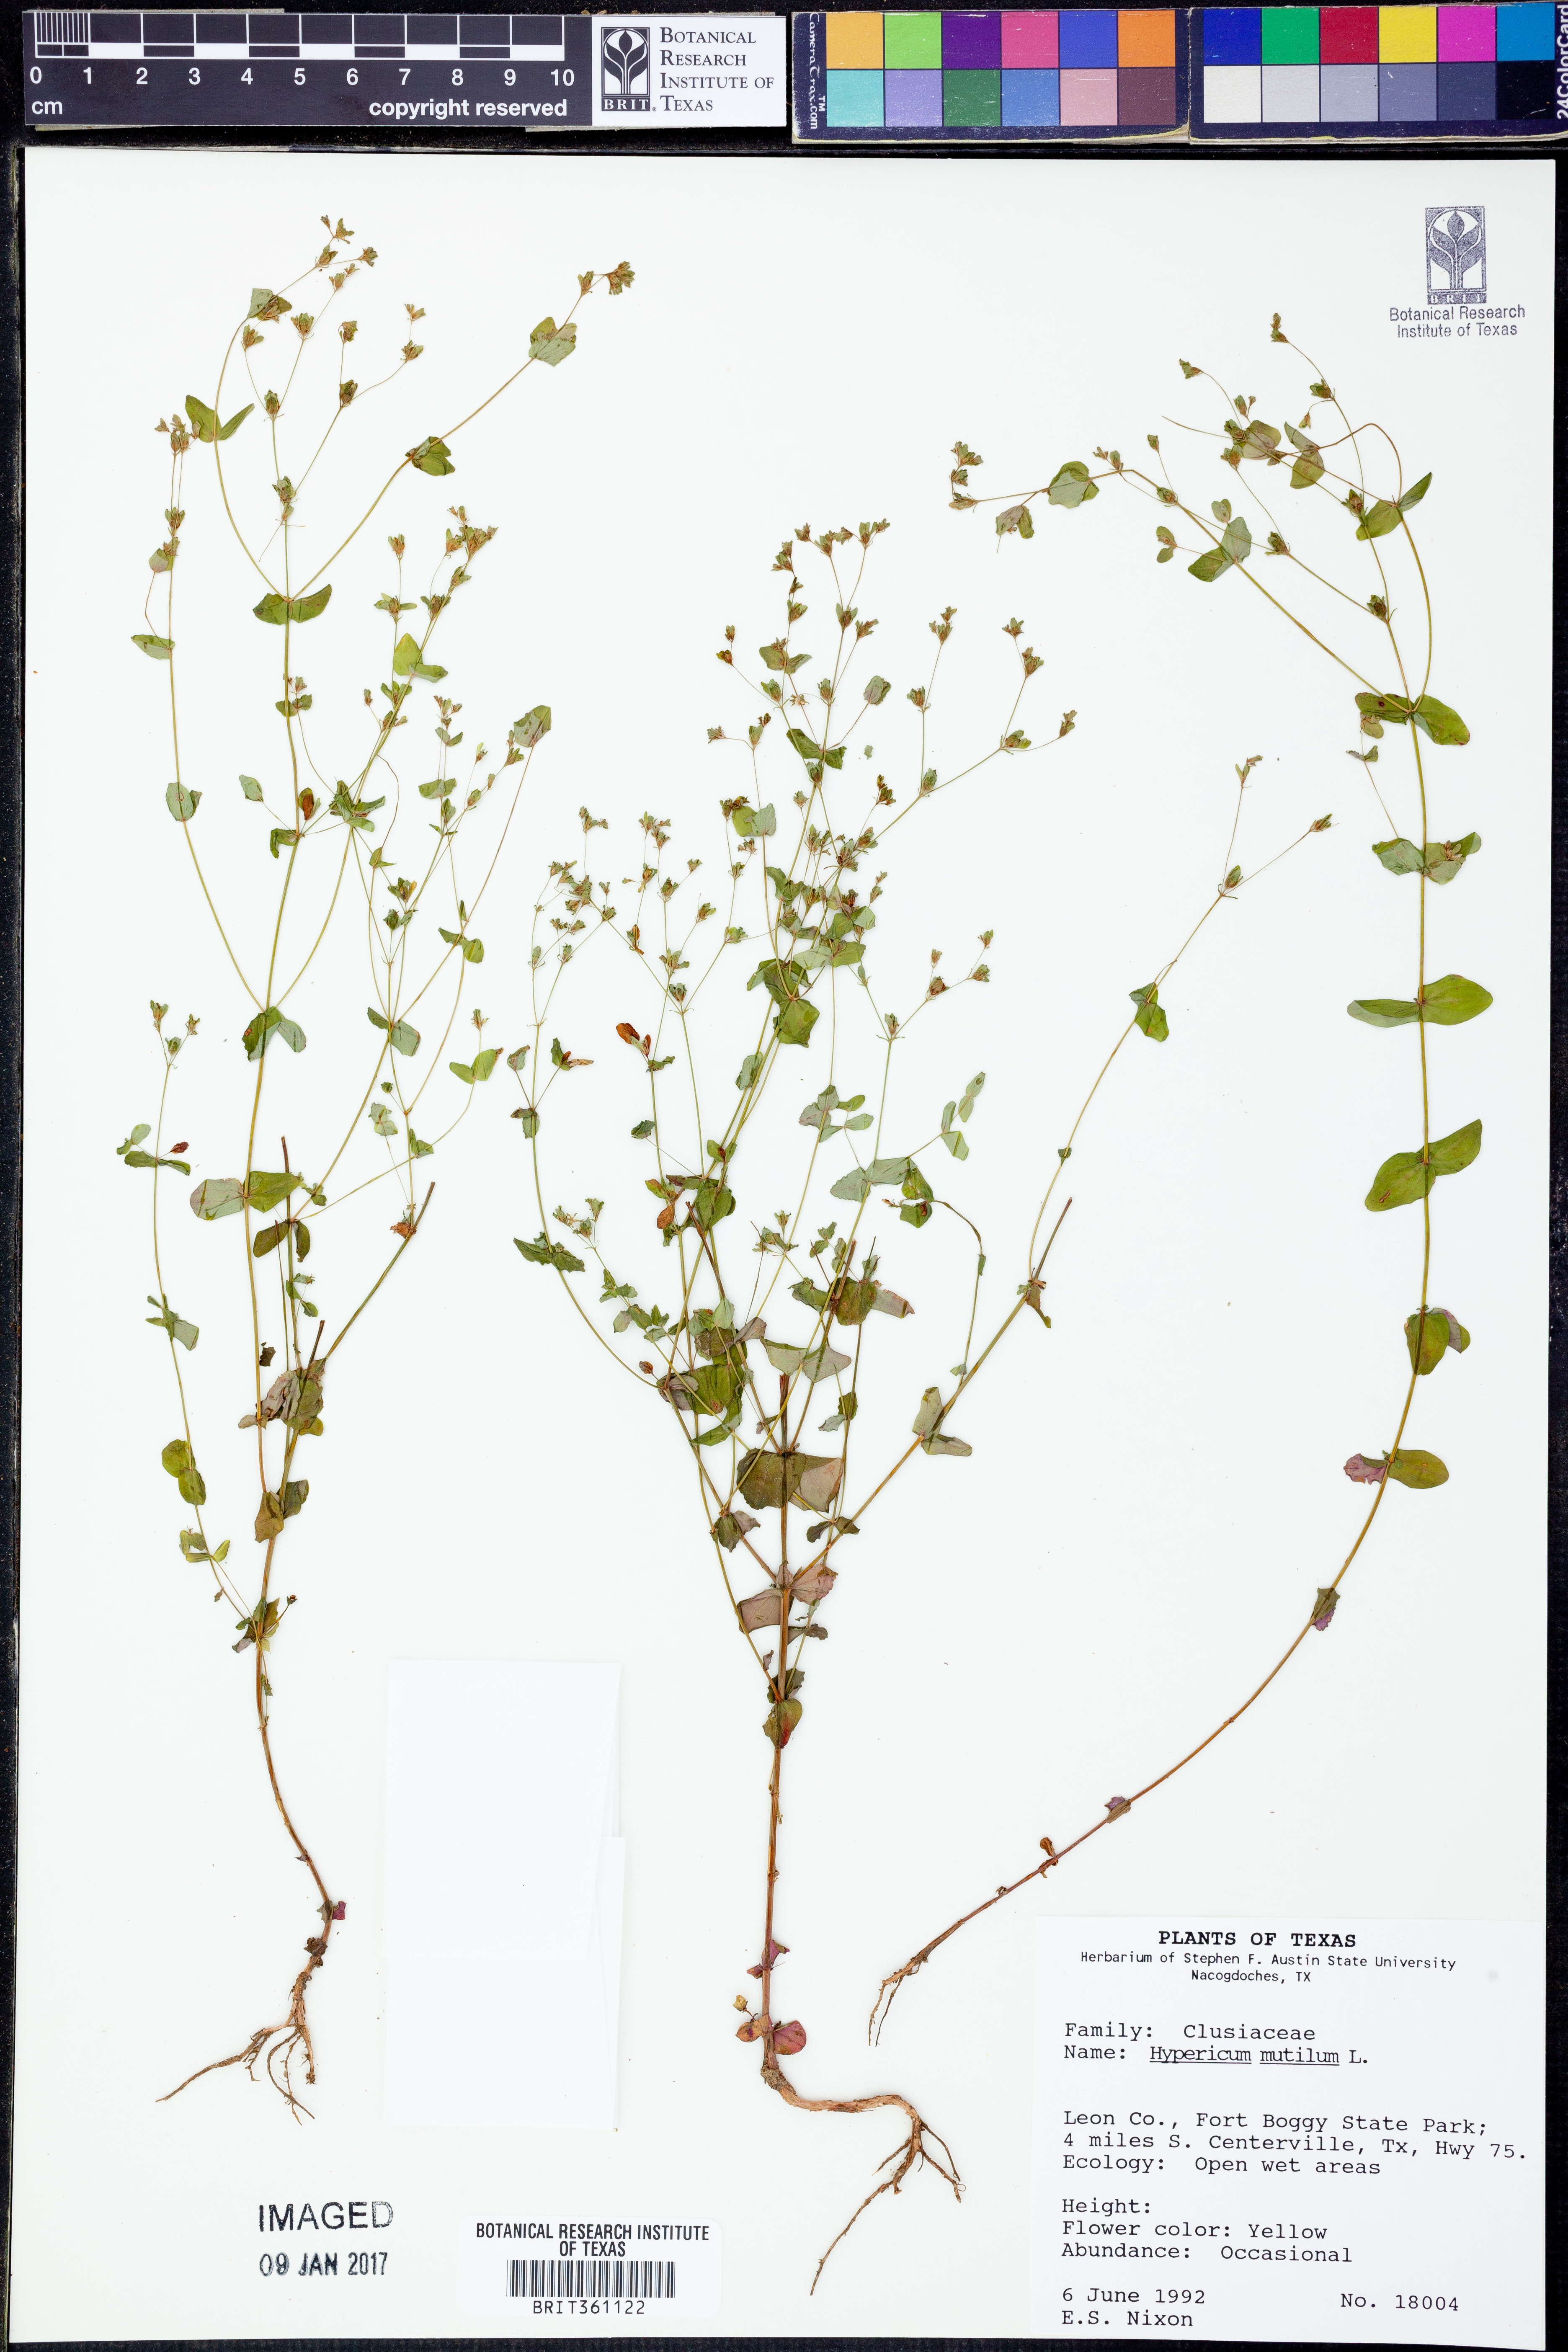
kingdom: Plantae
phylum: Tracheophyta
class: Magnoliopsida
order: Malpighiales
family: Hypericaceae
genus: Hypericum
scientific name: Hypericum mutilum
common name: Dwarf st. john's-wort
